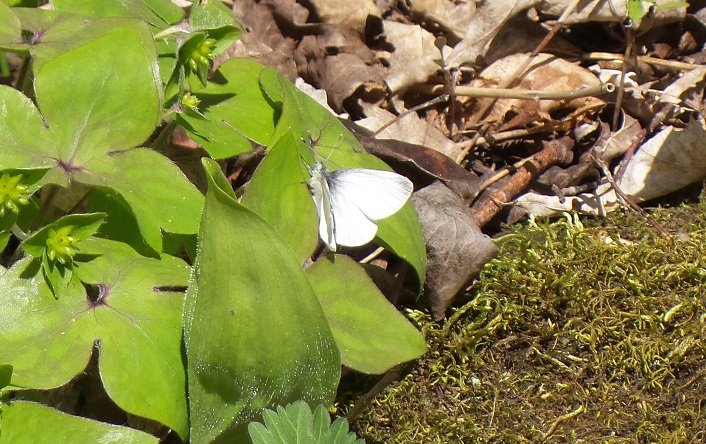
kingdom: Animalia
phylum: Arthropoda
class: Insecta
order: Lepidoptera
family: Pieridae
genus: Pieris
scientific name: Pieris virginiensis
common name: West Virginia White
